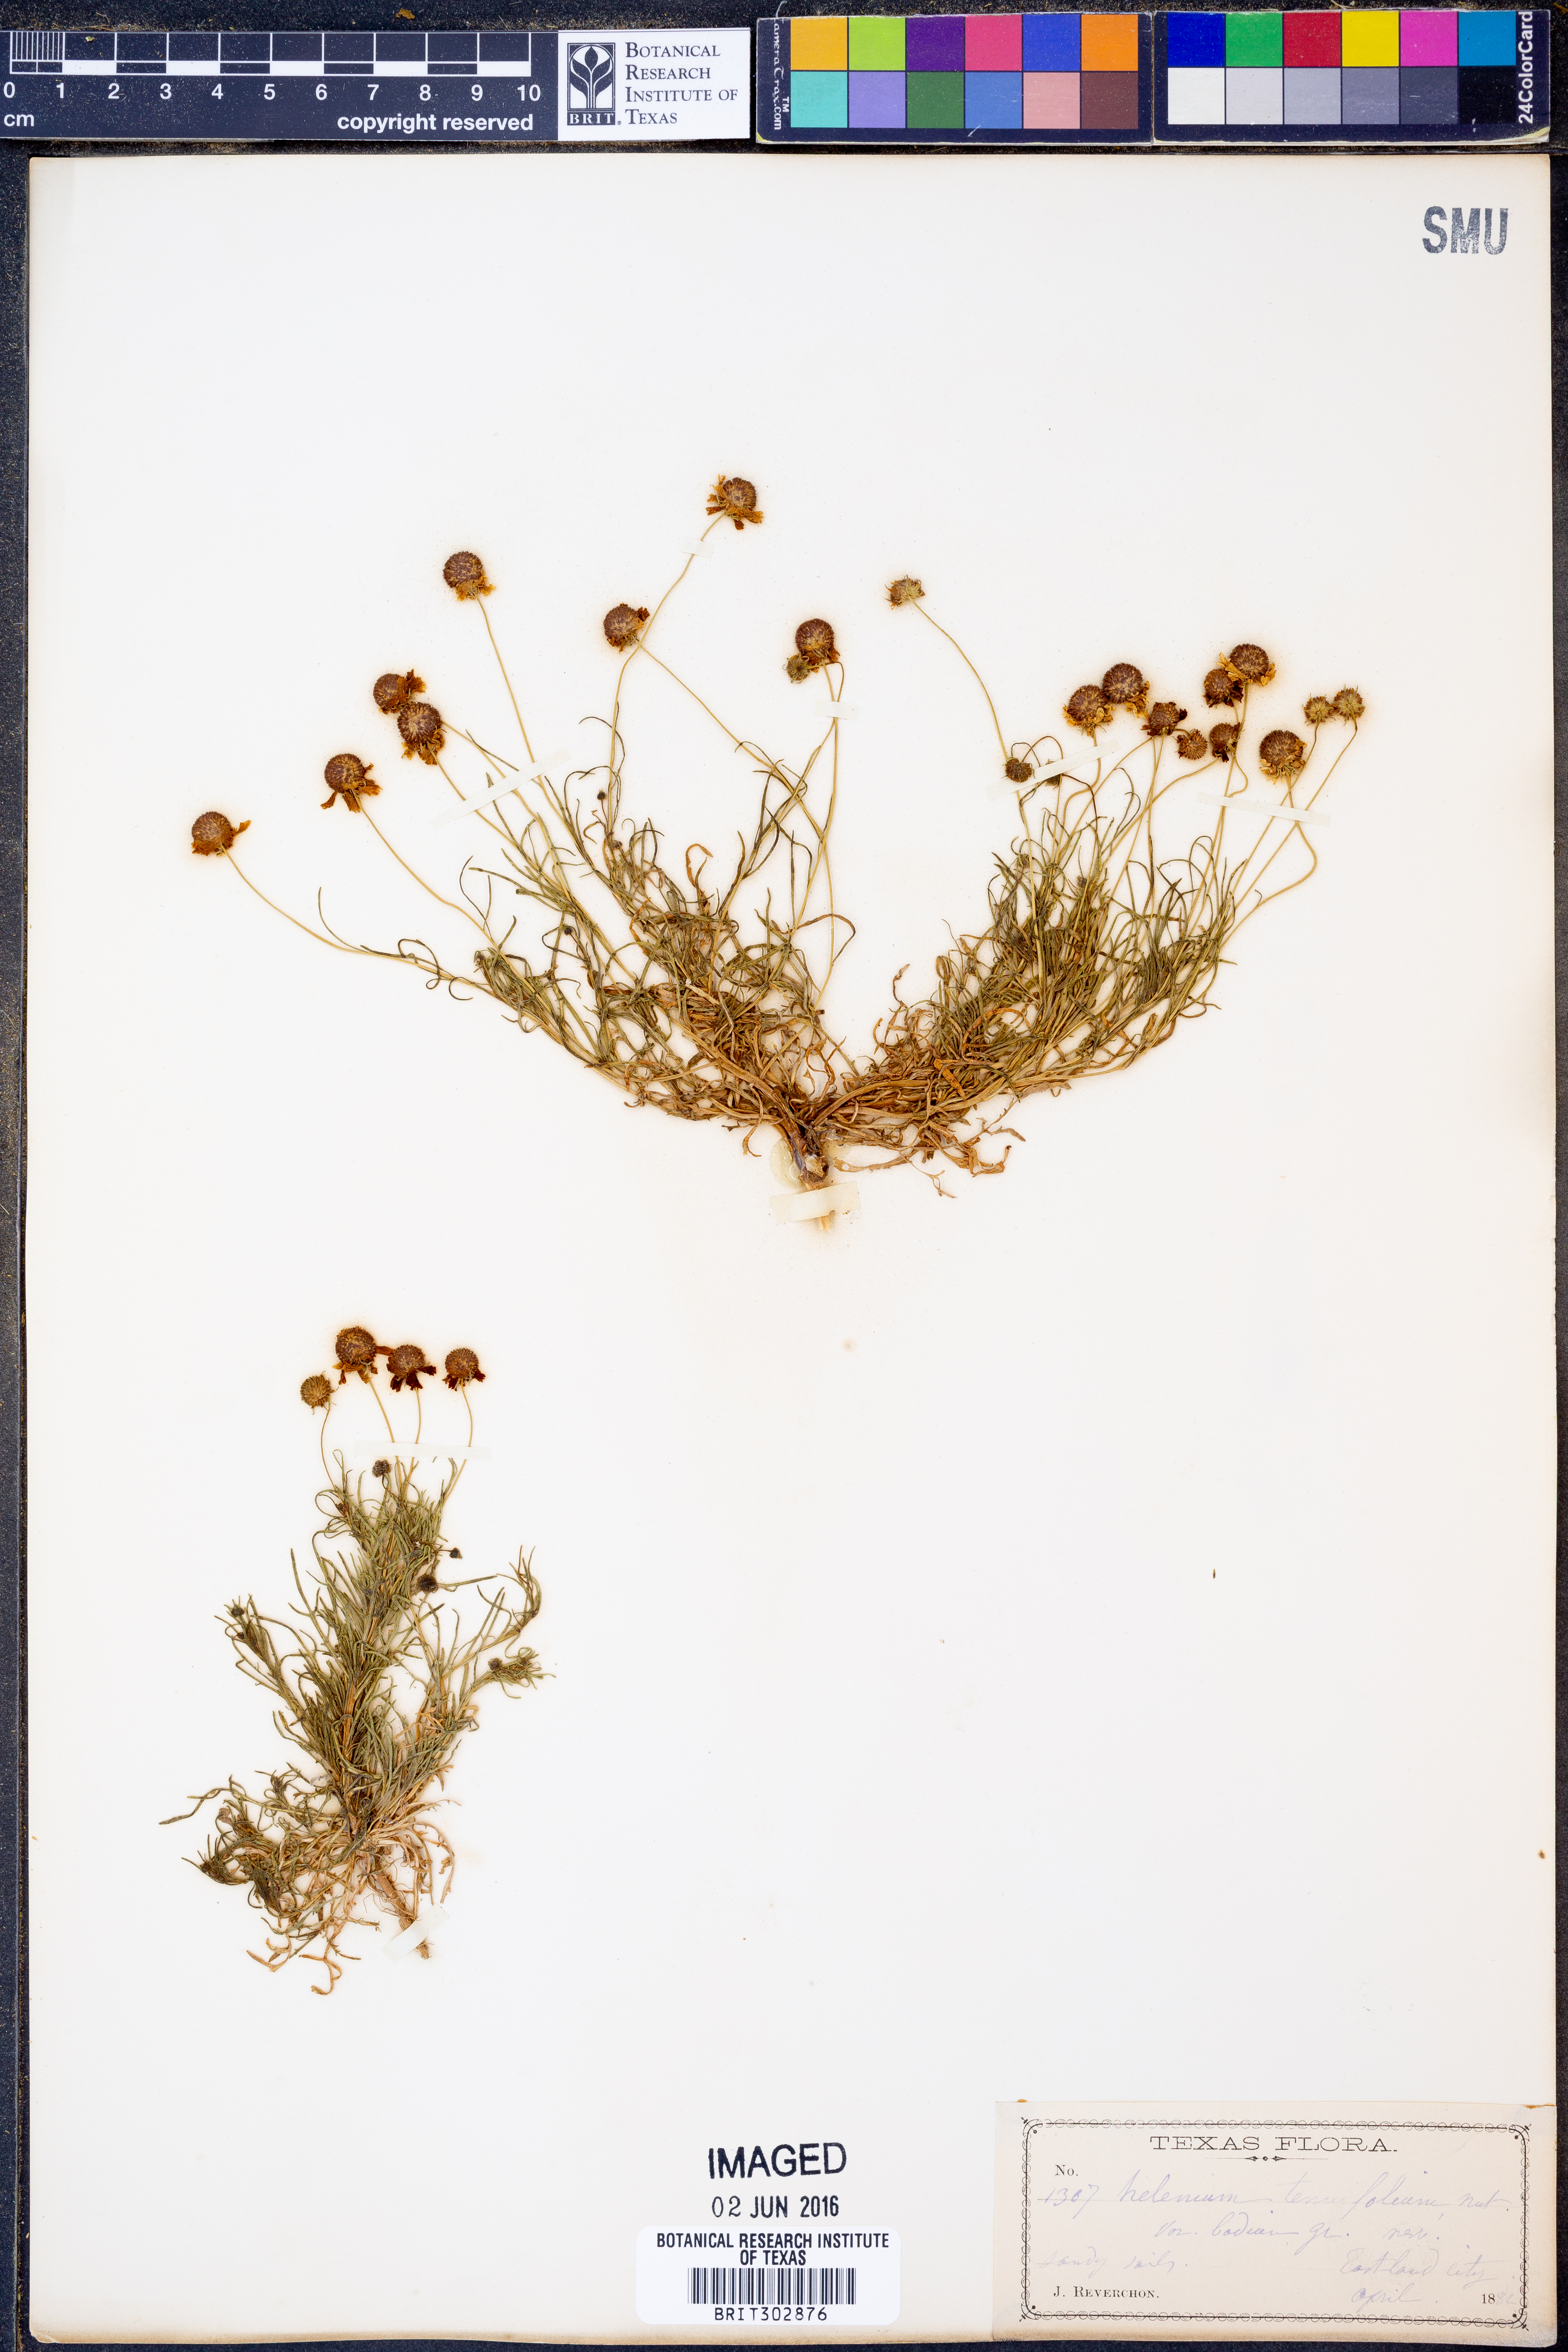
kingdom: Plantae
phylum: Tracheophyta
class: Magnoliopsida
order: Asterales
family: Asteraceae
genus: Helenium
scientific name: Helenium amarum
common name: Bitter sneezeweed
